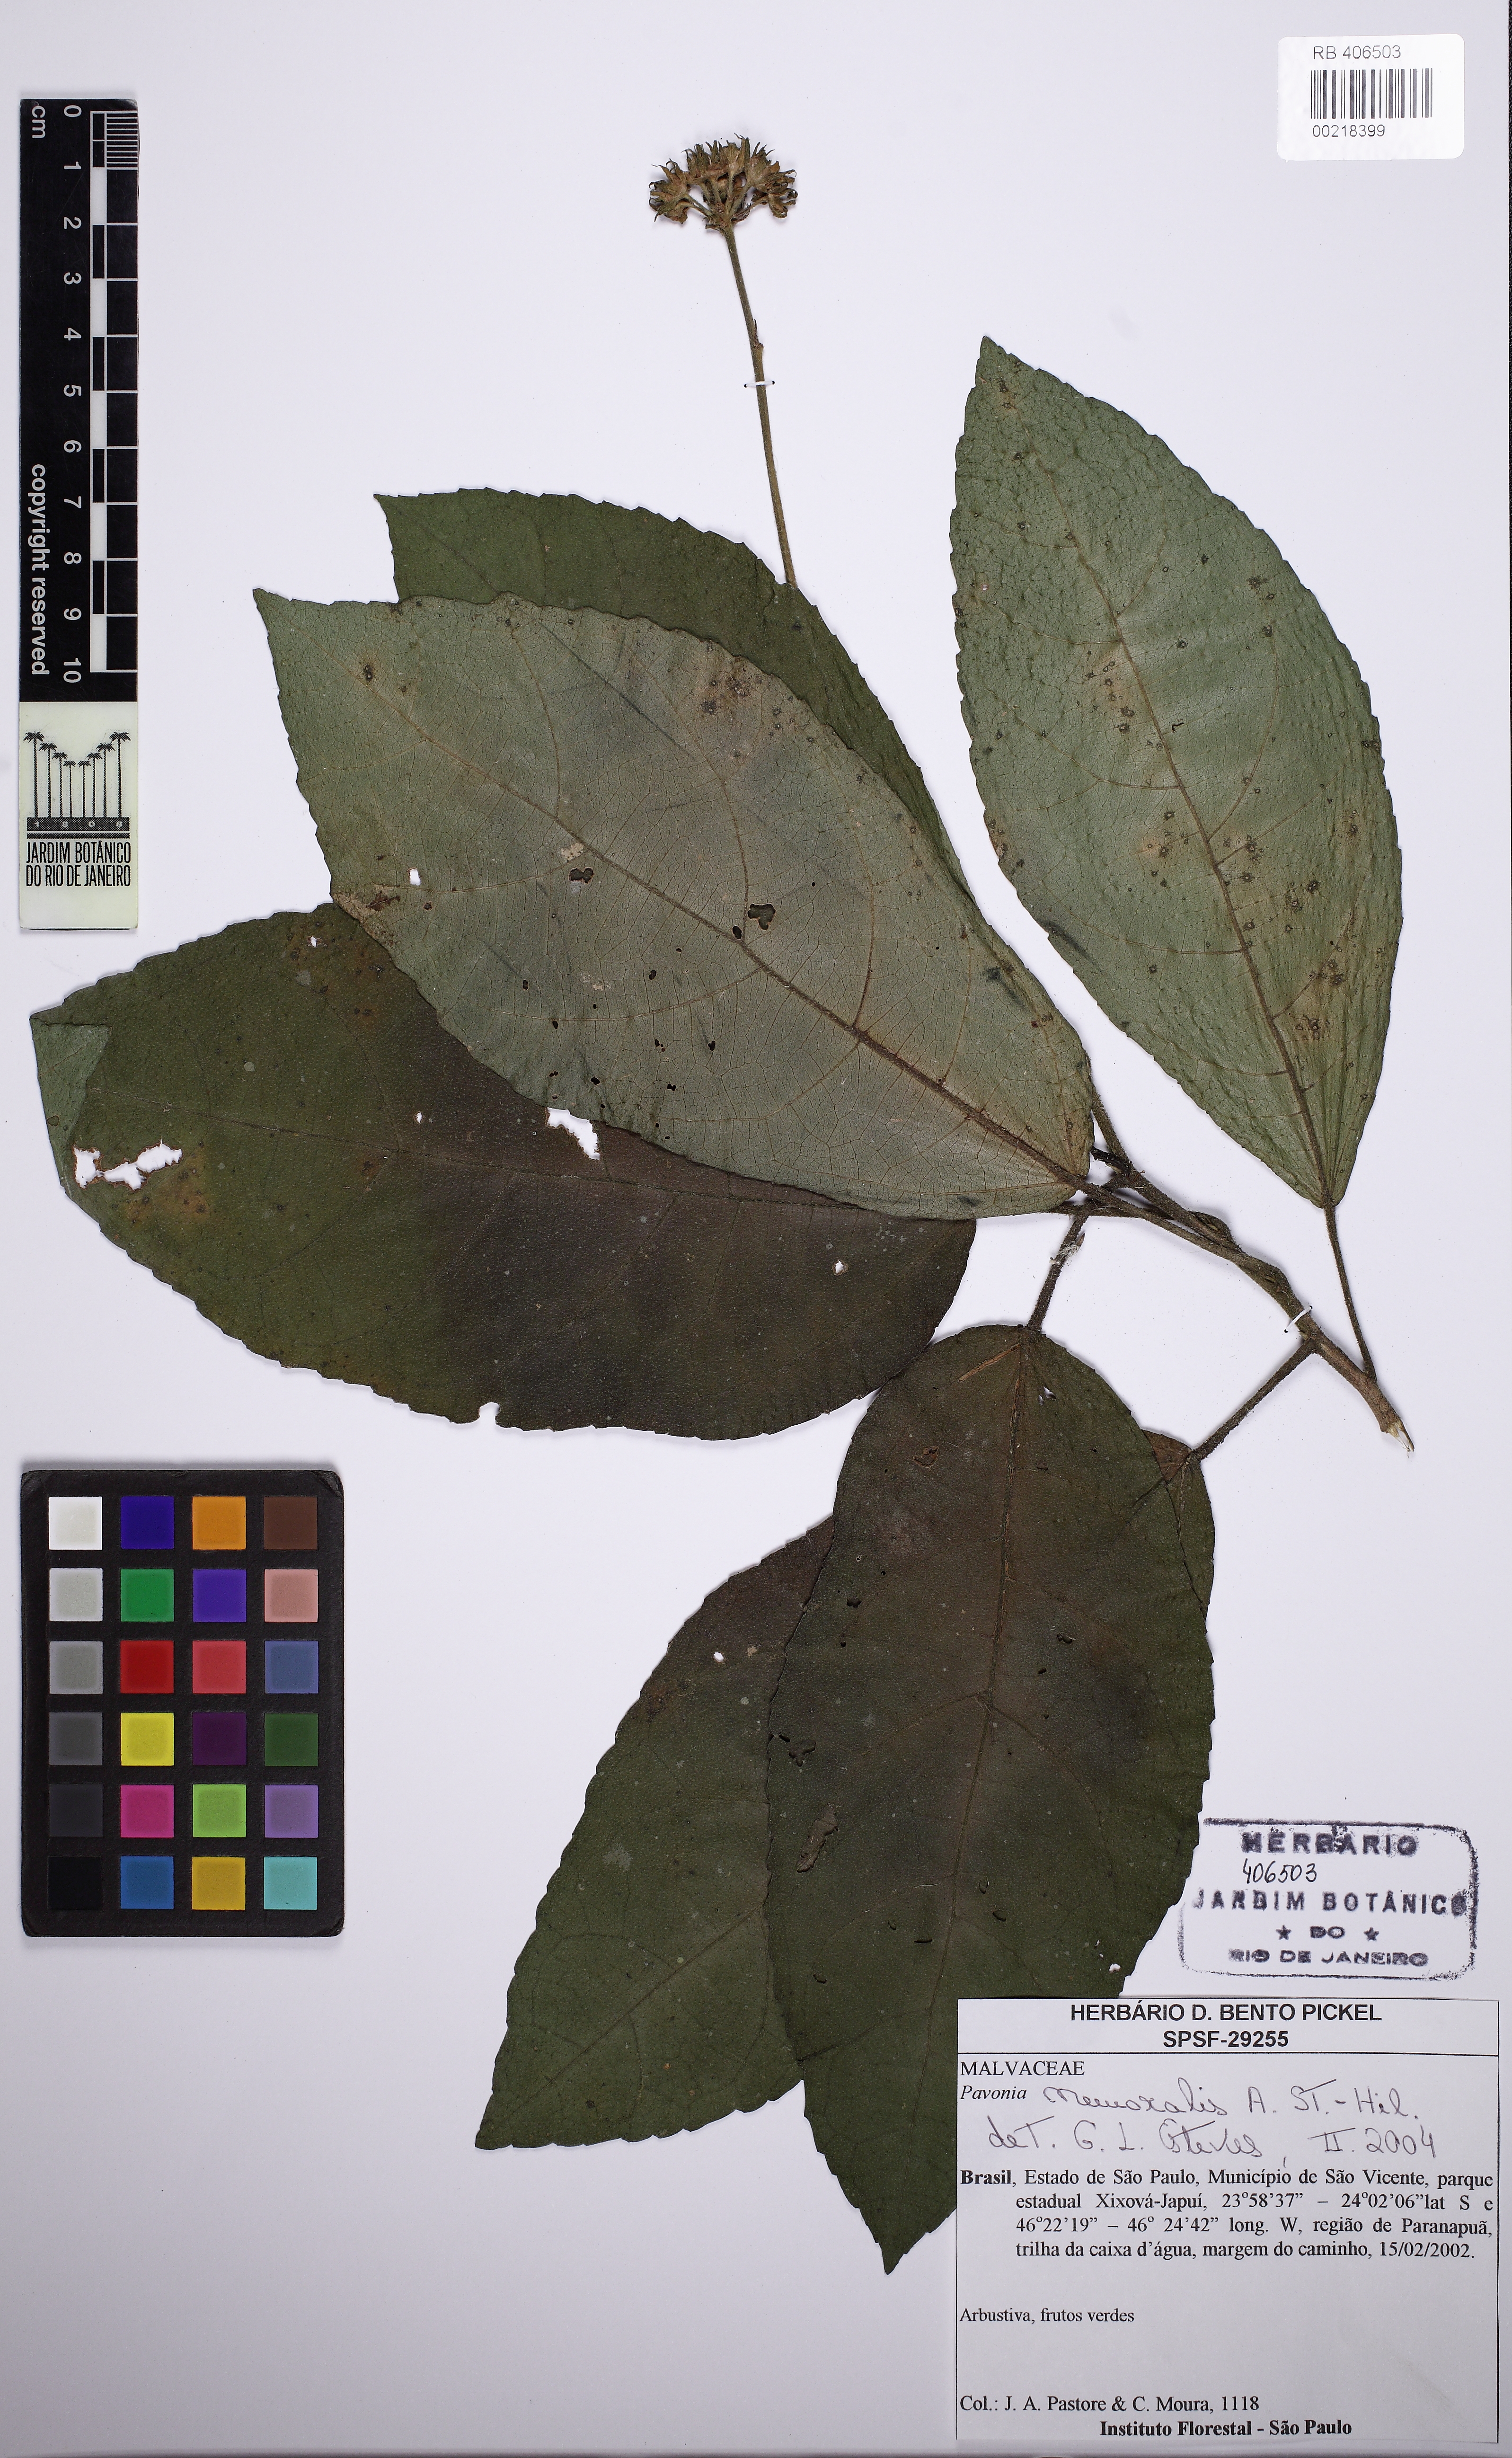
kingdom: Plantae
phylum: Tracheophyta
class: Magnoliopsida
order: Malvales
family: Malvaceae
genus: Pavonia
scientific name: Pavonia nemoralis
